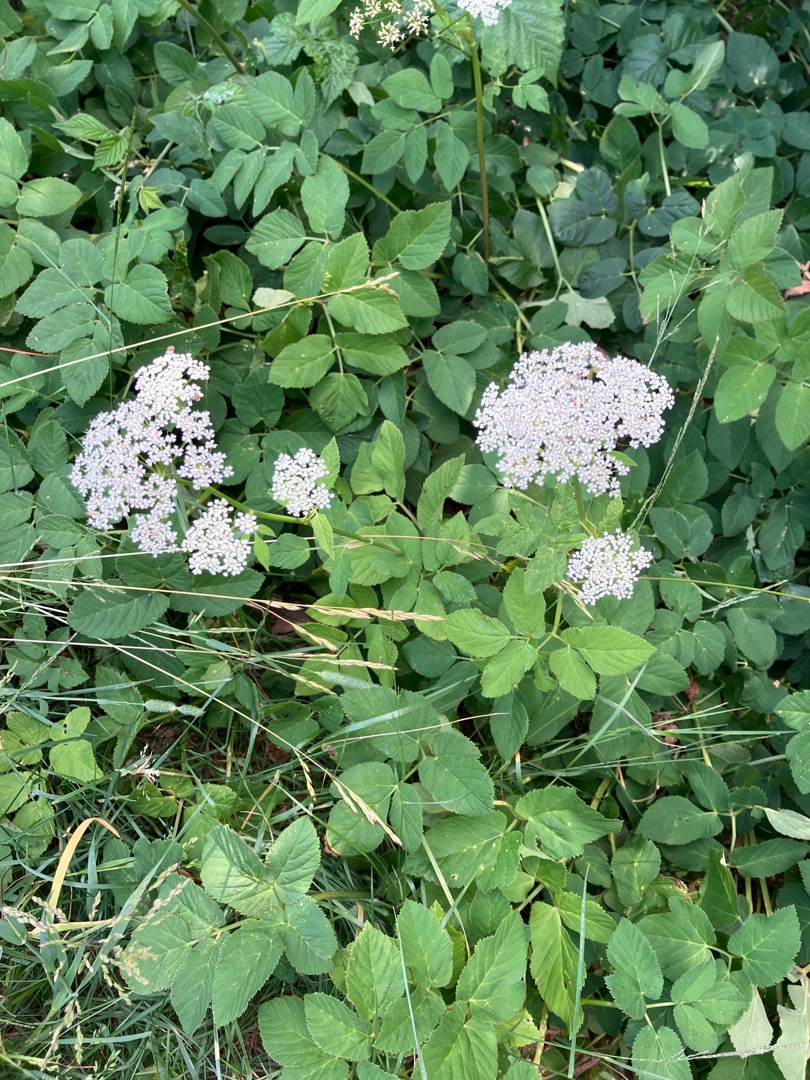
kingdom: Plantae
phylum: Tracheophyta
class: Magnoliopsida
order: Apiales
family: Apiaceae
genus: Aegopodium
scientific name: Aegopodium podagraria
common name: Skvalderkål
